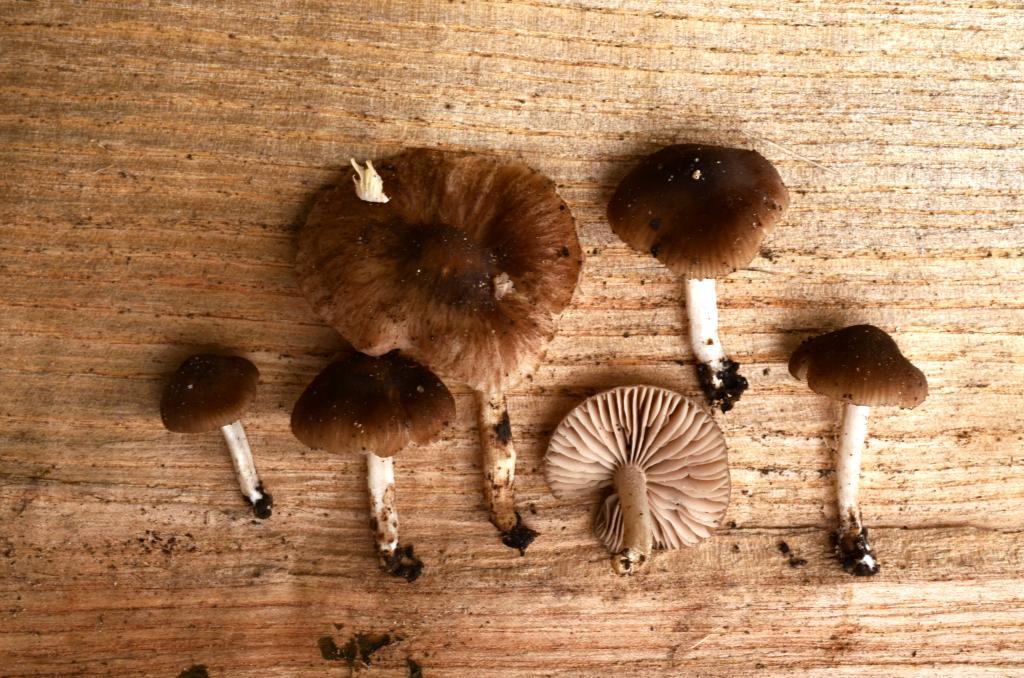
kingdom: Fungi
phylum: Basidiomycota
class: Agaricomycetes
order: Agaricales
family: Entolomataceae
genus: Entoloma
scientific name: Entoloma inusitatum
